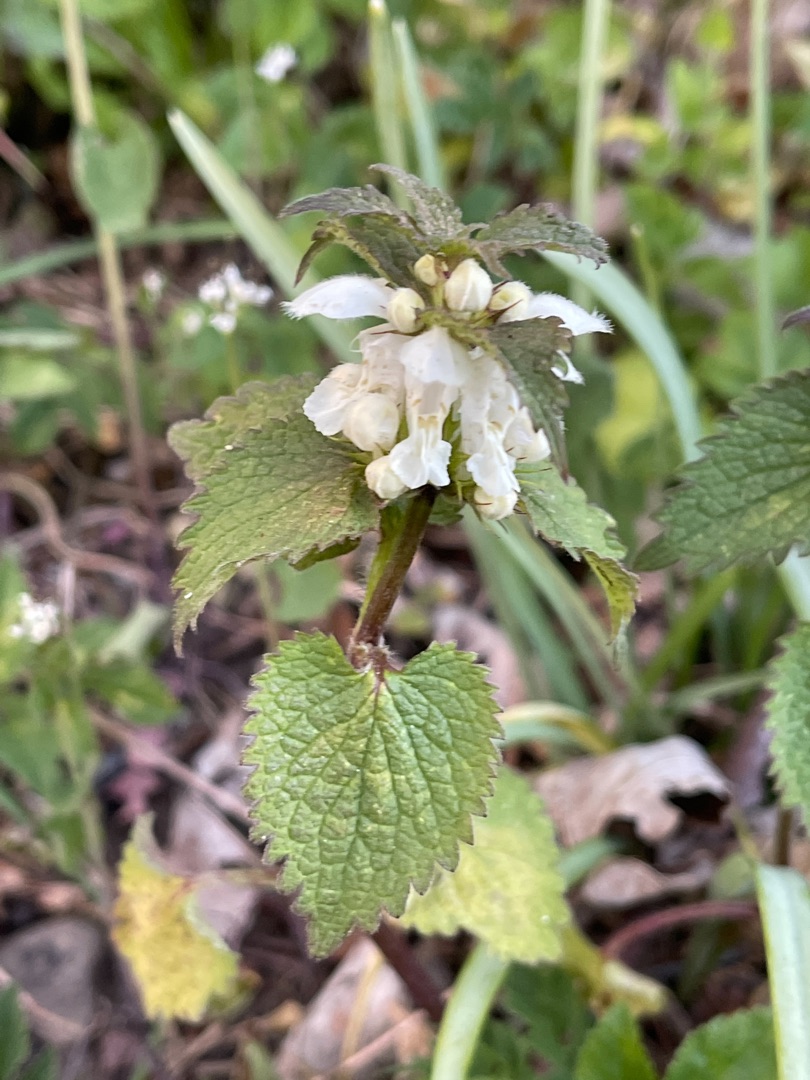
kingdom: Plantae
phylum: Tracheophyta
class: Magnoliopsida
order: Lamiales
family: Lamiaceae
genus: Lamium
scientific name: Lamium album
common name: Døvnælde
